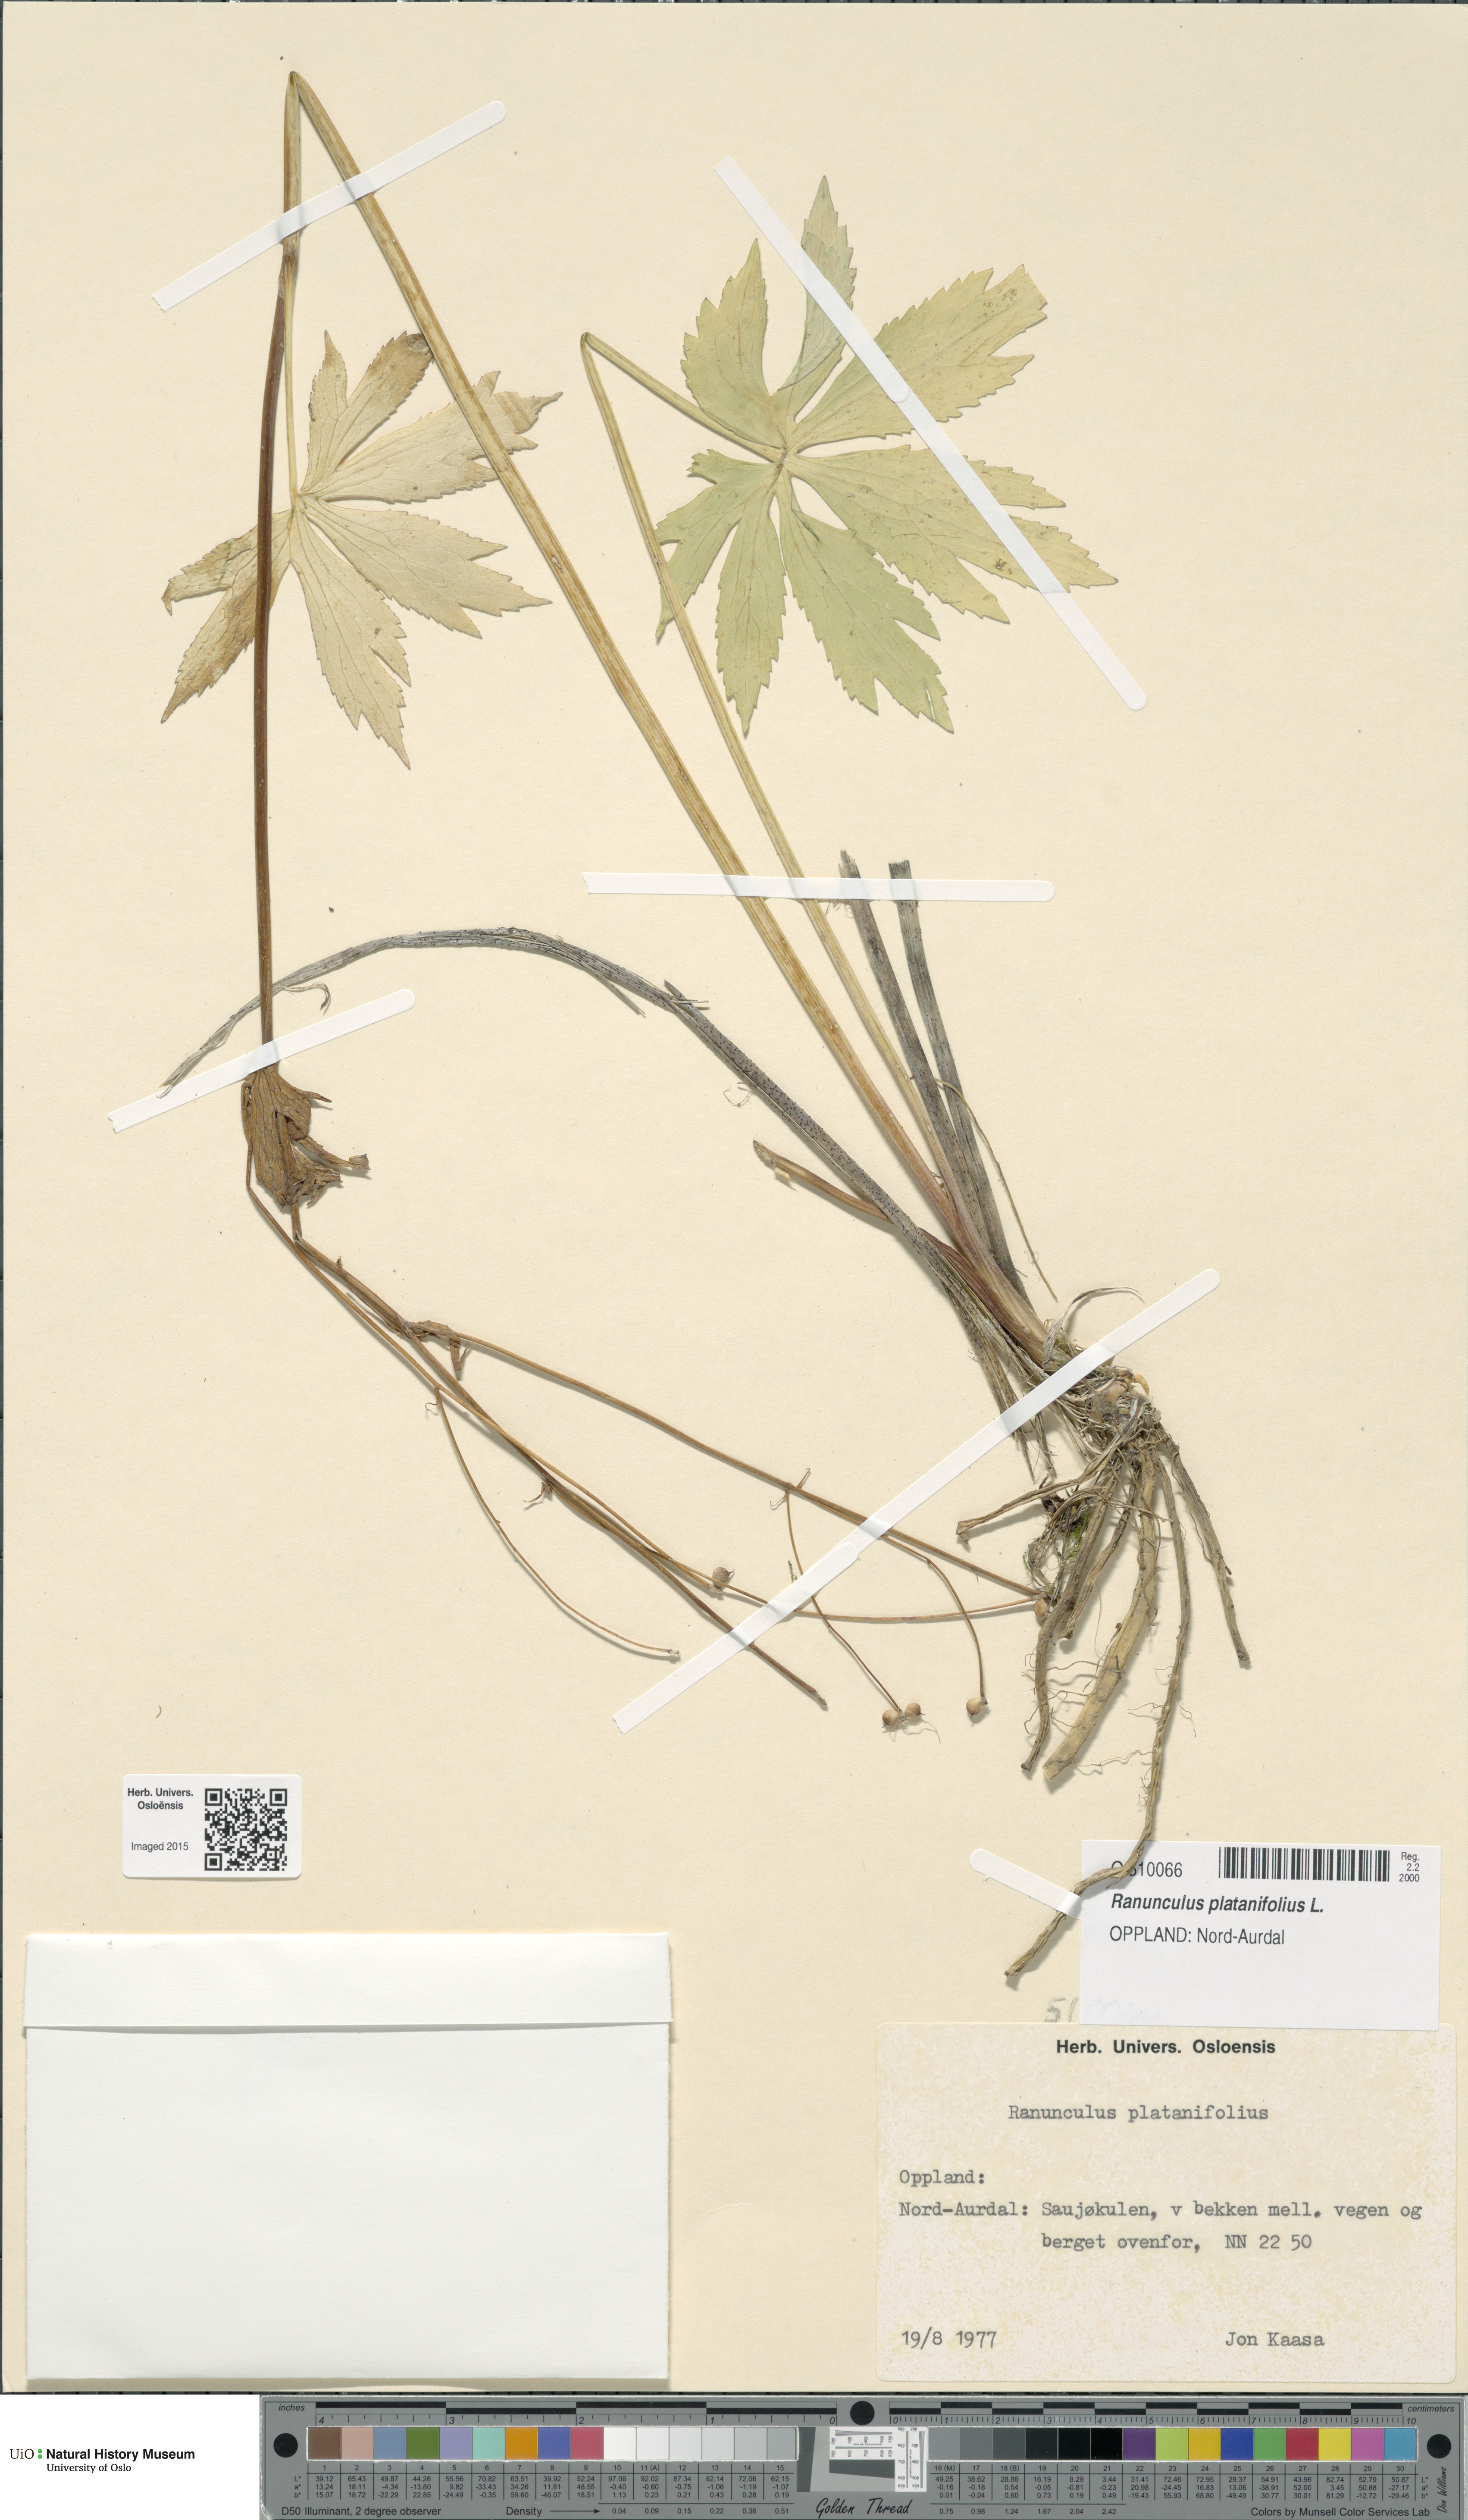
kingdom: Plantae
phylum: Tracheophyta
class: Magnoliopsida
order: Ranunculales
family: Ranunculaceae
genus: Ranunculus
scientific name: Ranunculus platanifolius
